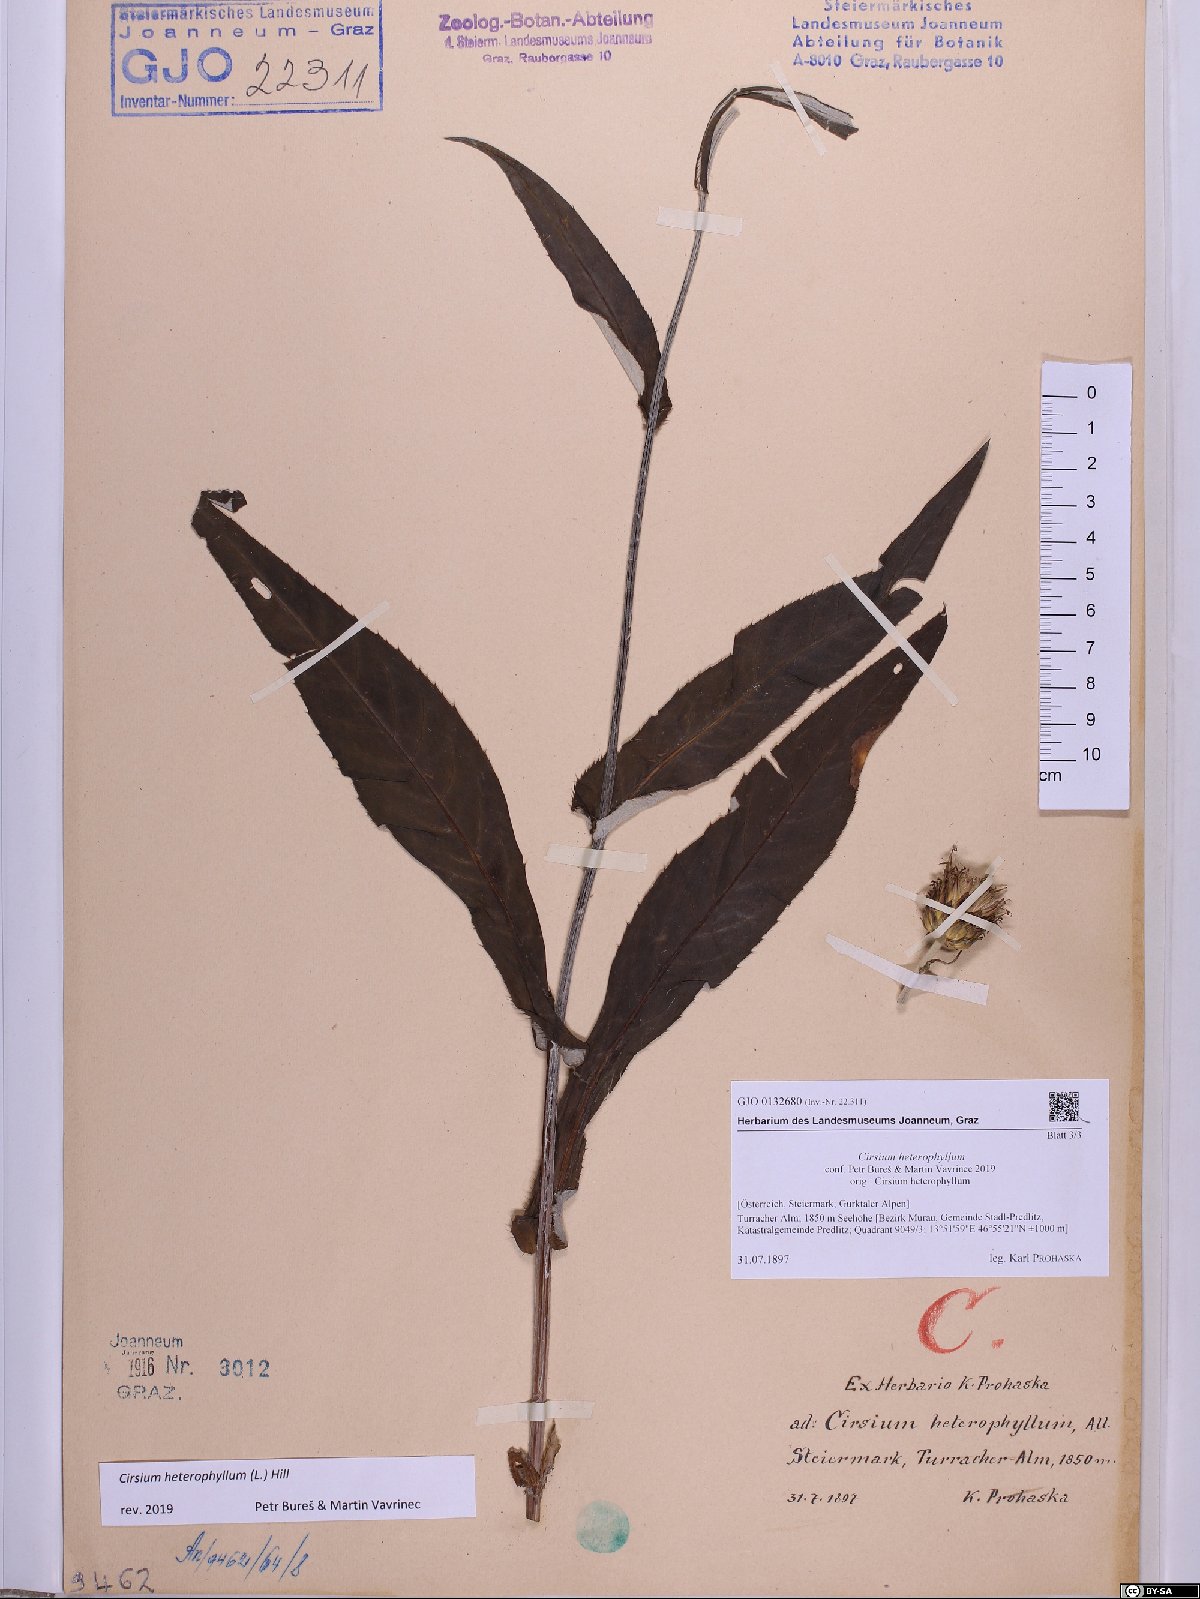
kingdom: Plantae
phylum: Tracheophyta
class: Magnoliopsida
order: Asterales
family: Asteraceae
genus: Cirsium
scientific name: Cirsium heterophyllum
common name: Melancholy thistle
